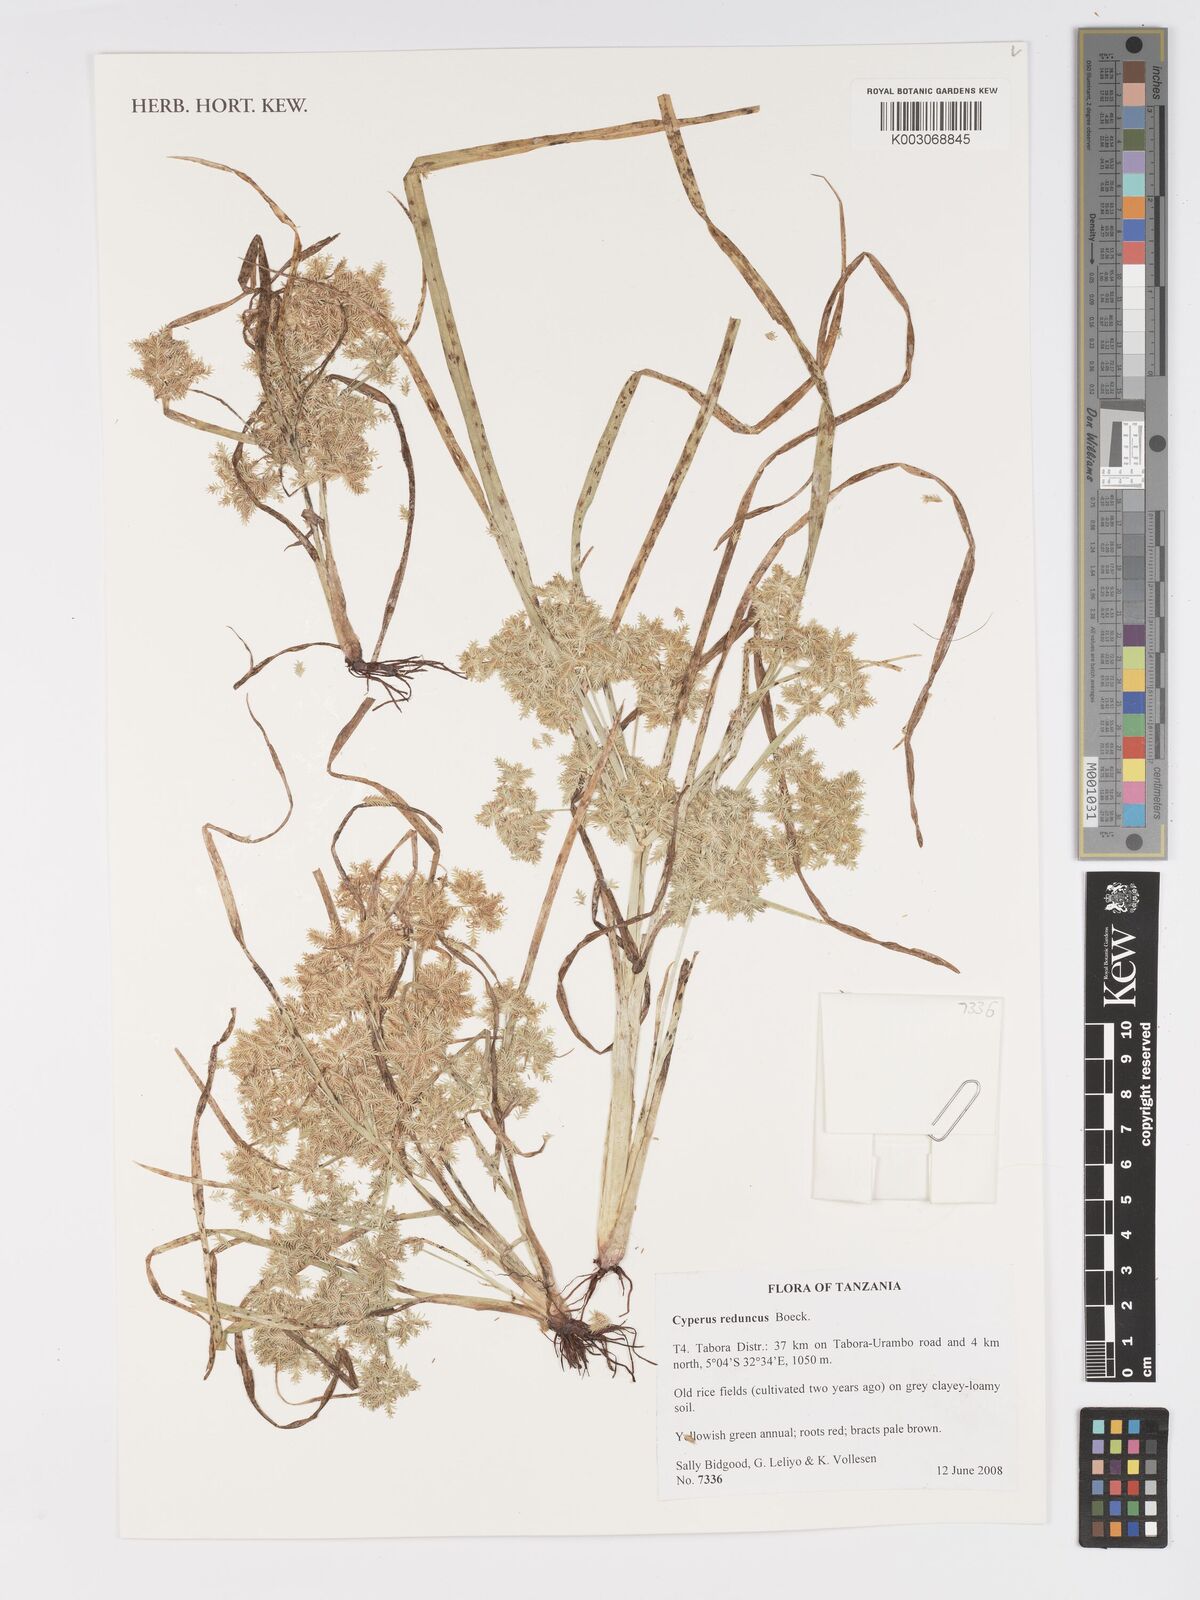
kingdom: Plantae
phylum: Tracheophyta
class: Liliopsida
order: Poales
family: Cyperaceae
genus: Cyperus
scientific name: Cyperus reduncus
